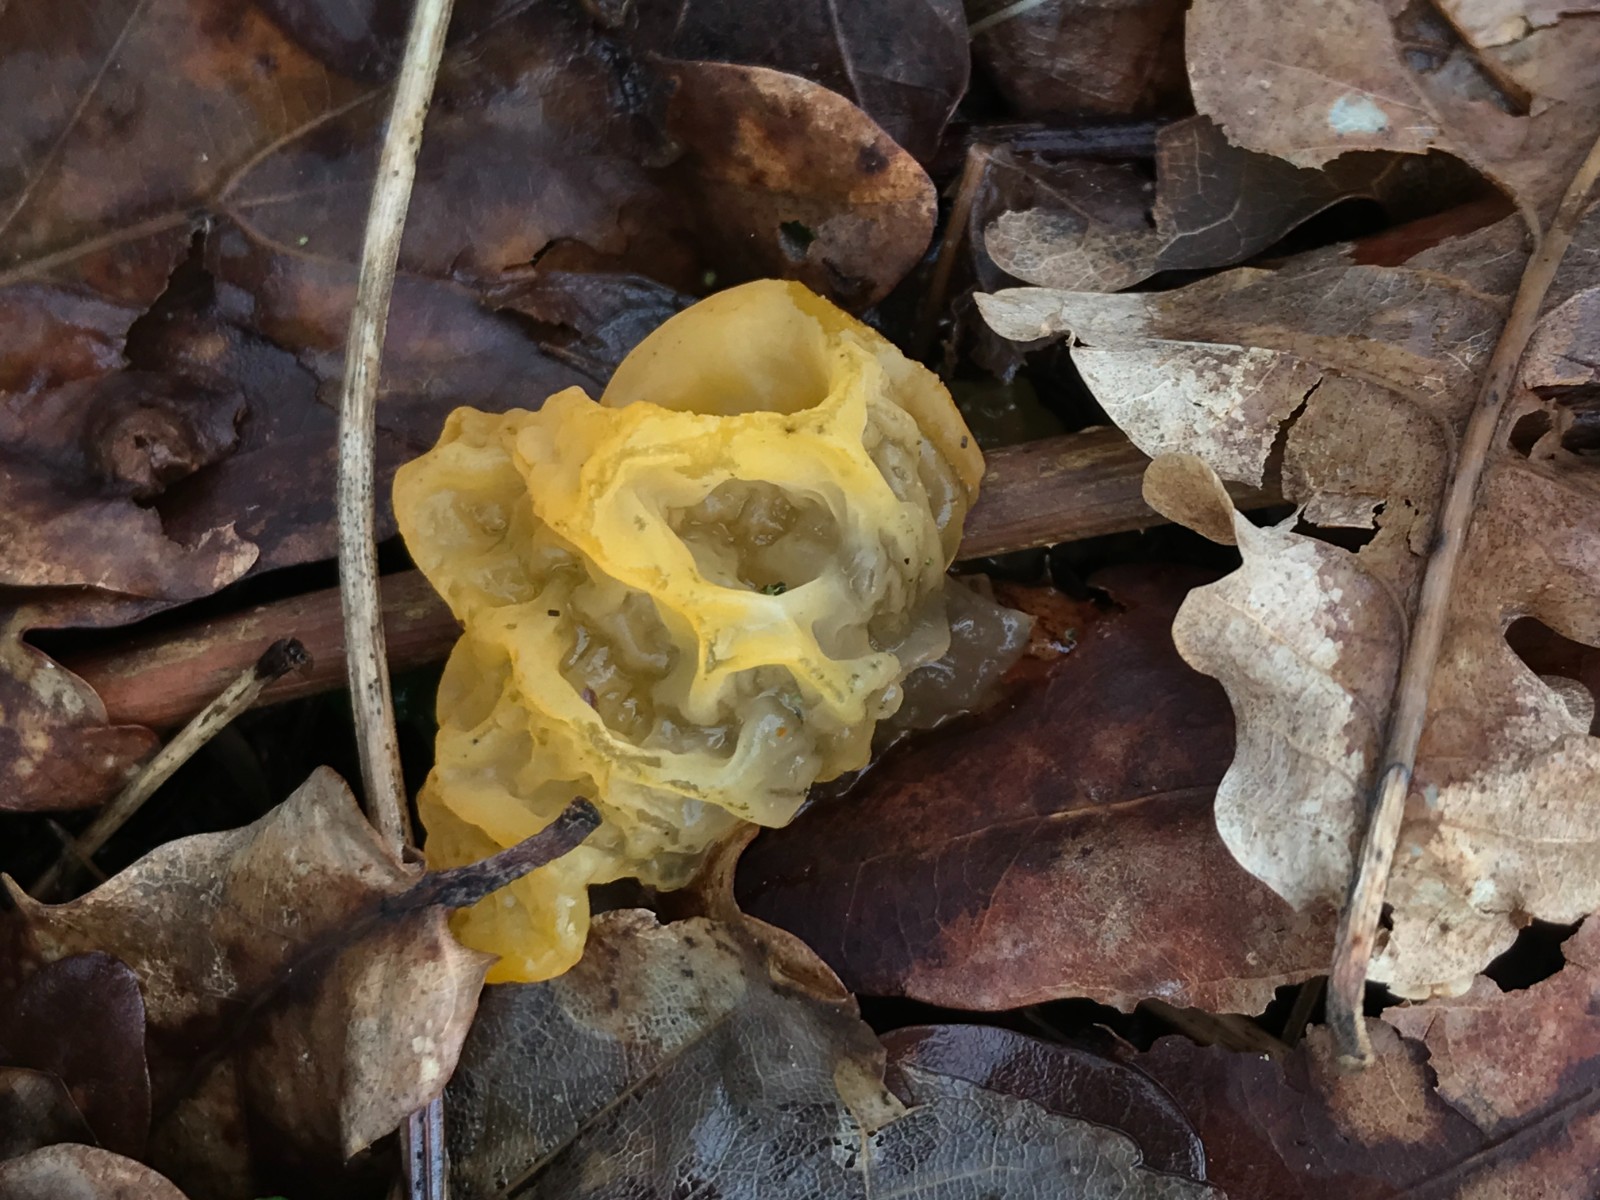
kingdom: Fungi
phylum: Basidiomycota
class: Tremellomycetes
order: Tremellales
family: Tremellaceae
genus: Tremella
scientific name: Tremella mesenterica
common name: gul bævresvamp
